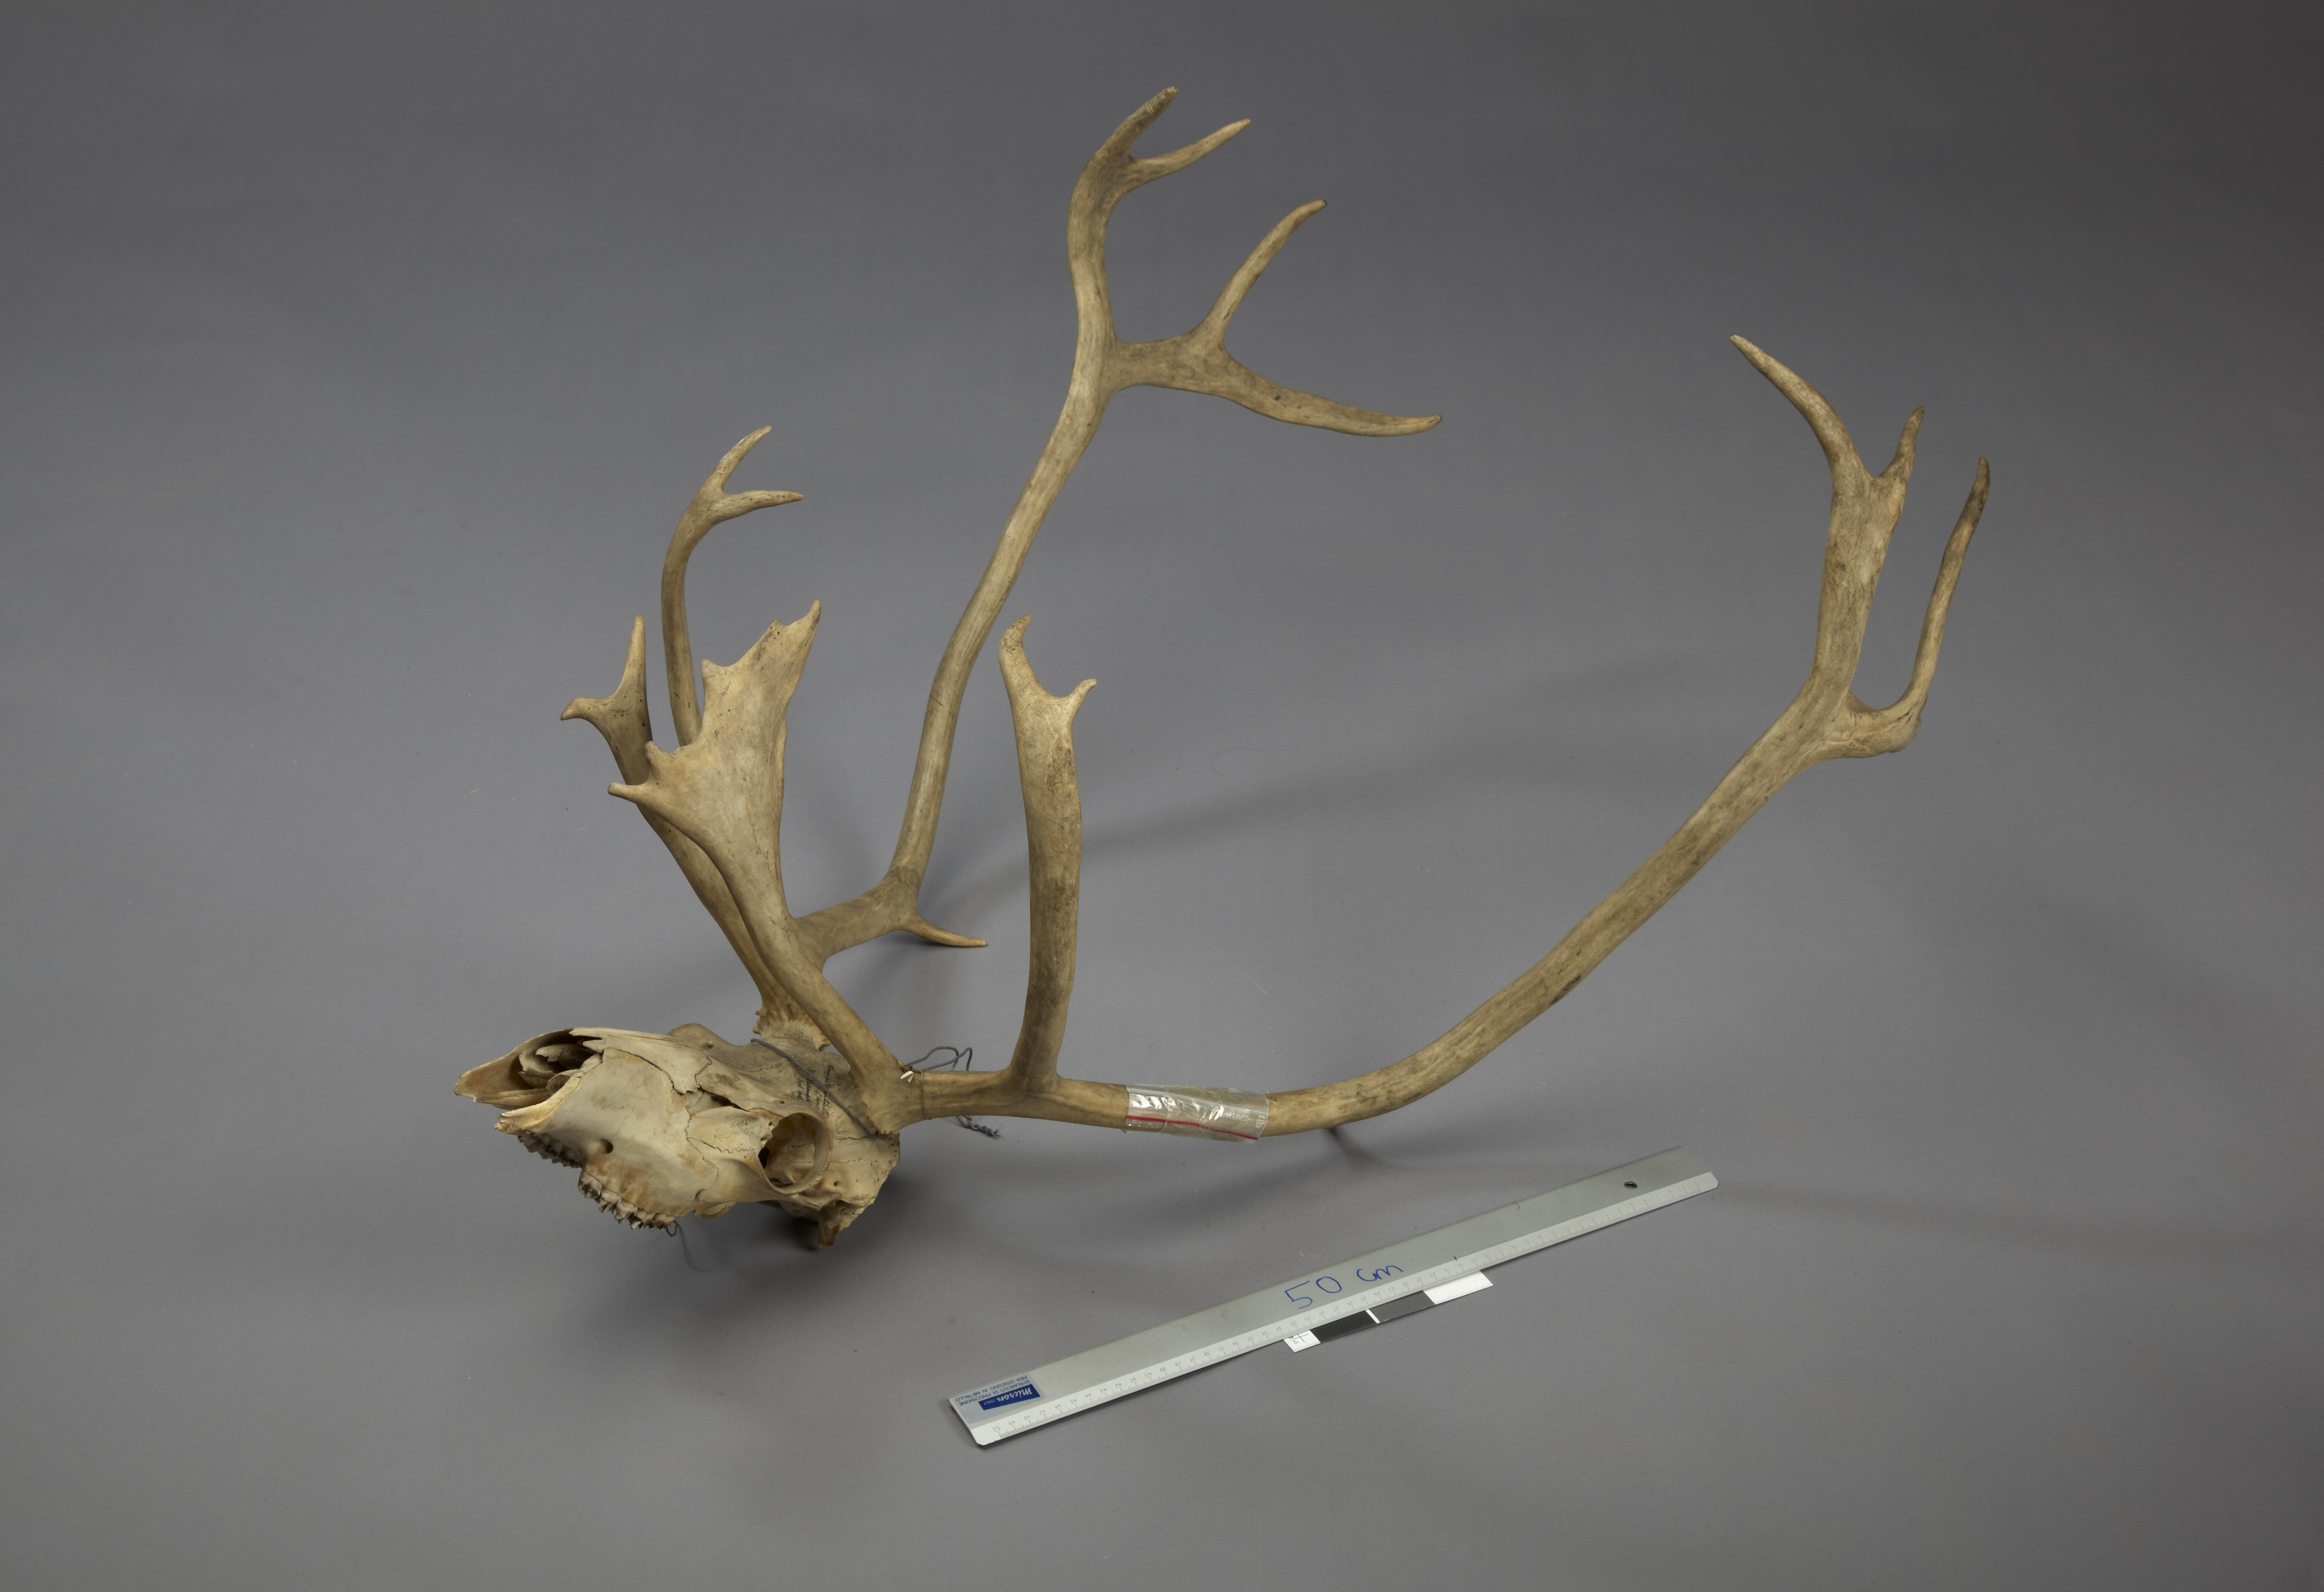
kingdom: Animalia
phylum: Chordata
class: Mammalia
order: Artiodactyla
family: Cervidae
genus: Rangifer
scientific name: Rangifer tarandus
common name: Reindeer
